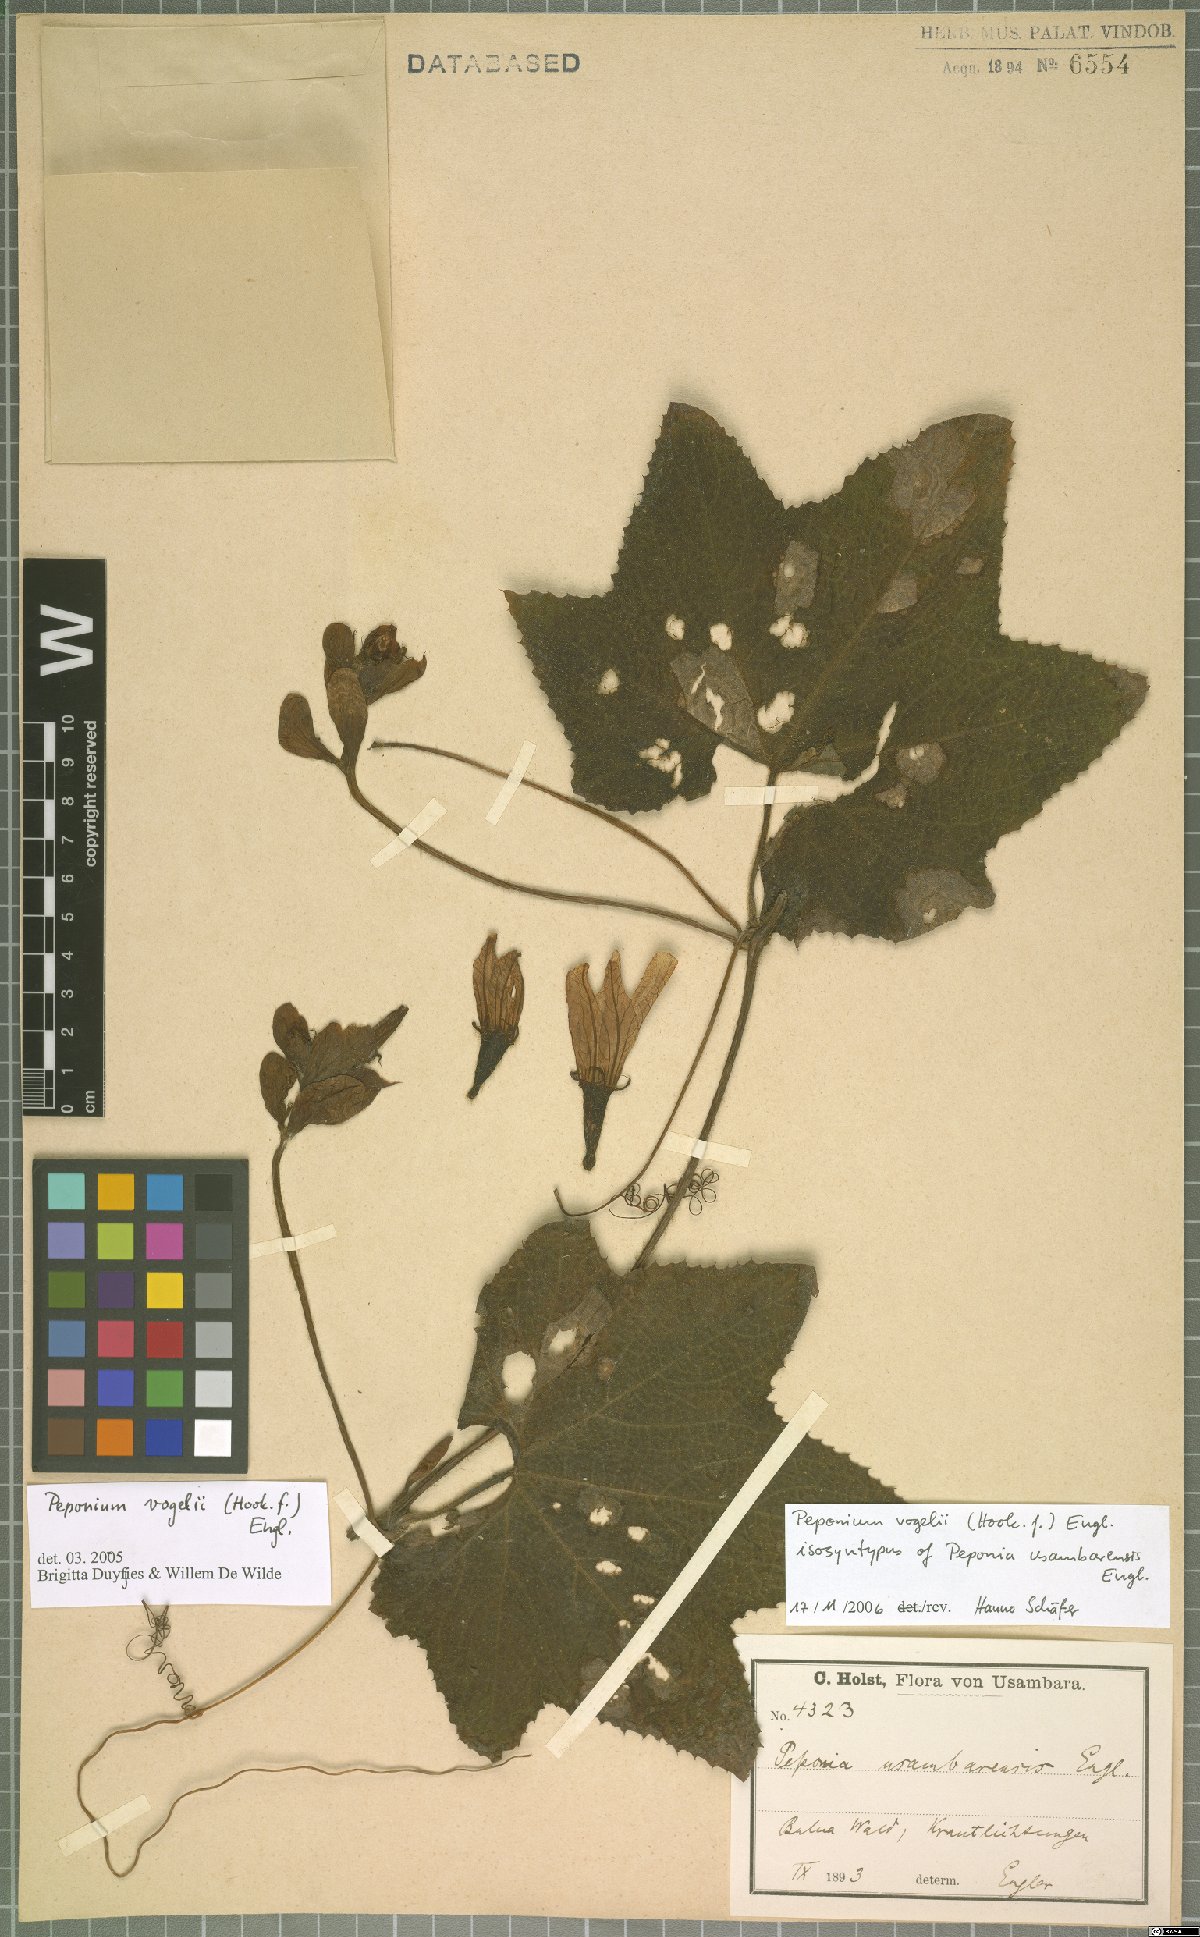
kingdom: Plantae
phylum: Tracheophyta
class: Magnoliopsida
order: Cucurbitales
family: Cucurbitaceae
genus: Peponium
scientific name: Peponium vogelii
